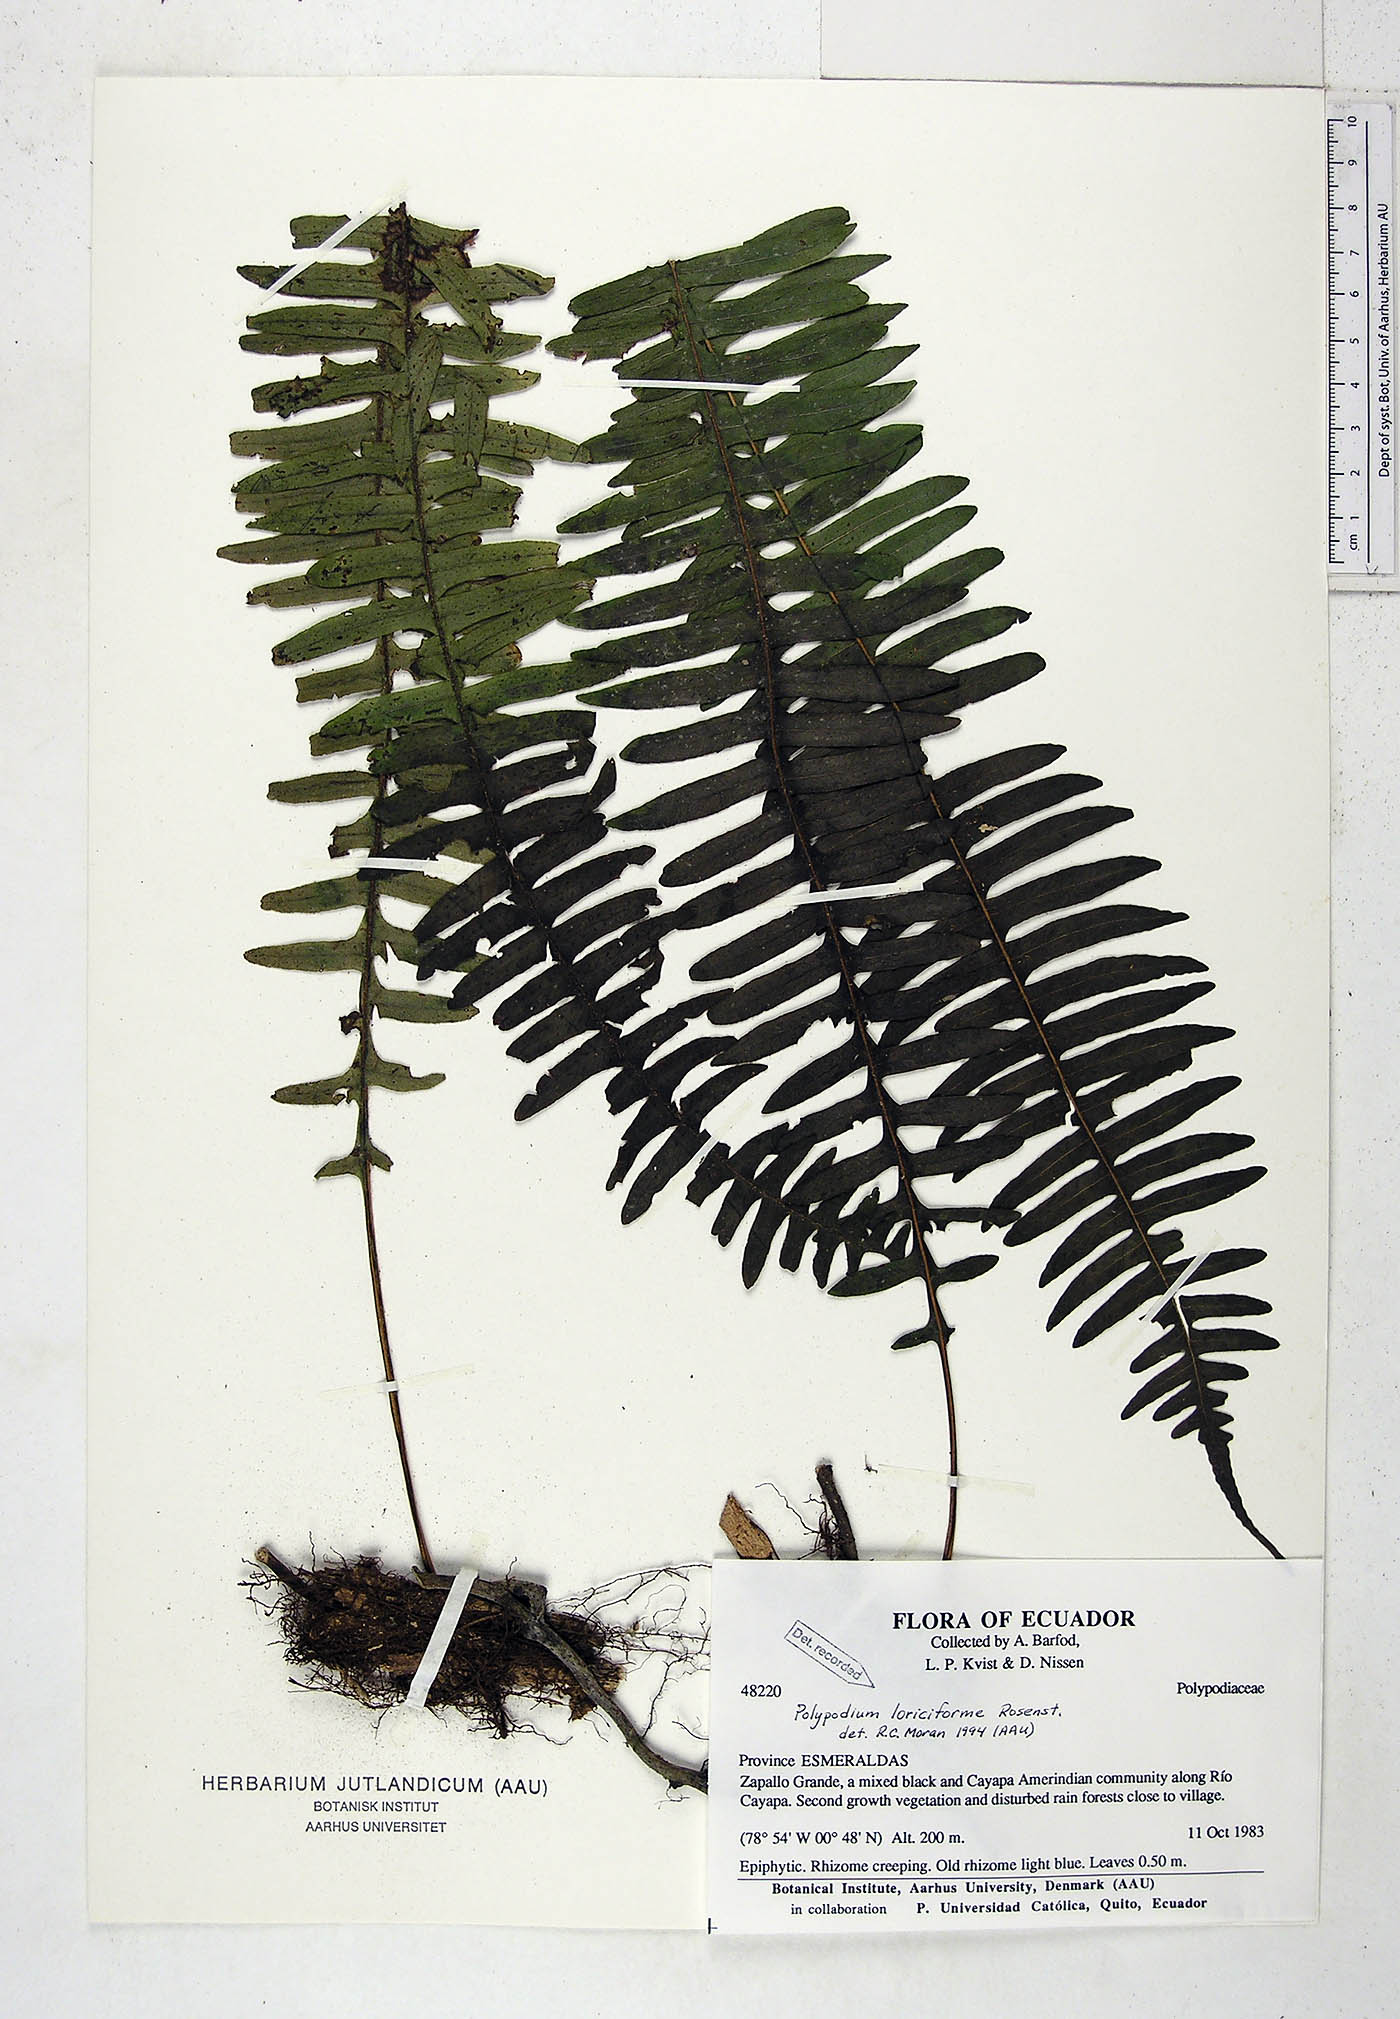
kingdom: Plantae
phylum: Tracheophyta
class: Polypodiopsida
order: Polypodiales
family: Polypodiaceae
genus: Serpocaulon
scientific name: Serpocaulon loriciforme
